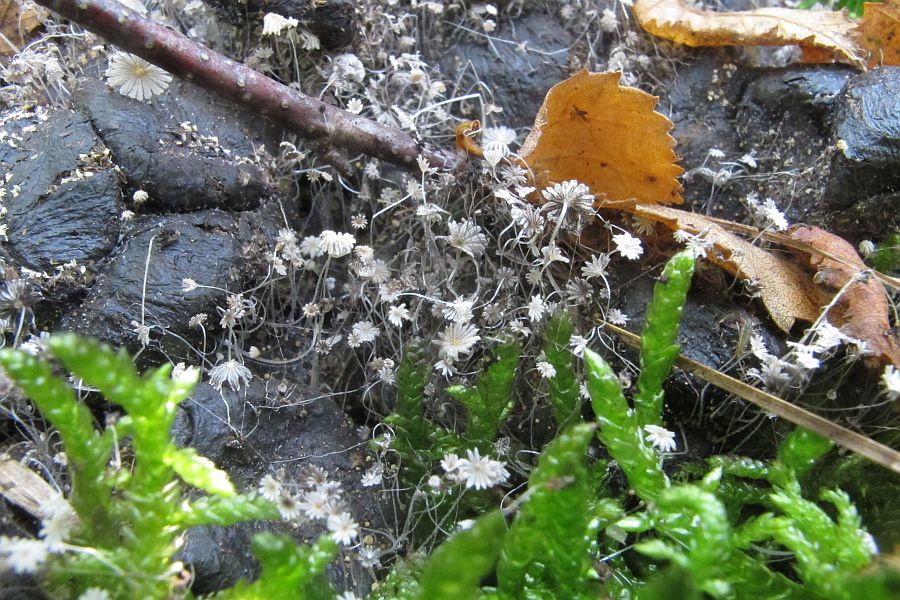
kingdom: Fungi
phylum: Basidiomycota
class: Agaricomycetes
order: Agaricales
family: Psathyrellaceae
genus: Coprinellus
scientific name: Coprinellus pusillulus
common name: lillebitte blækhat
